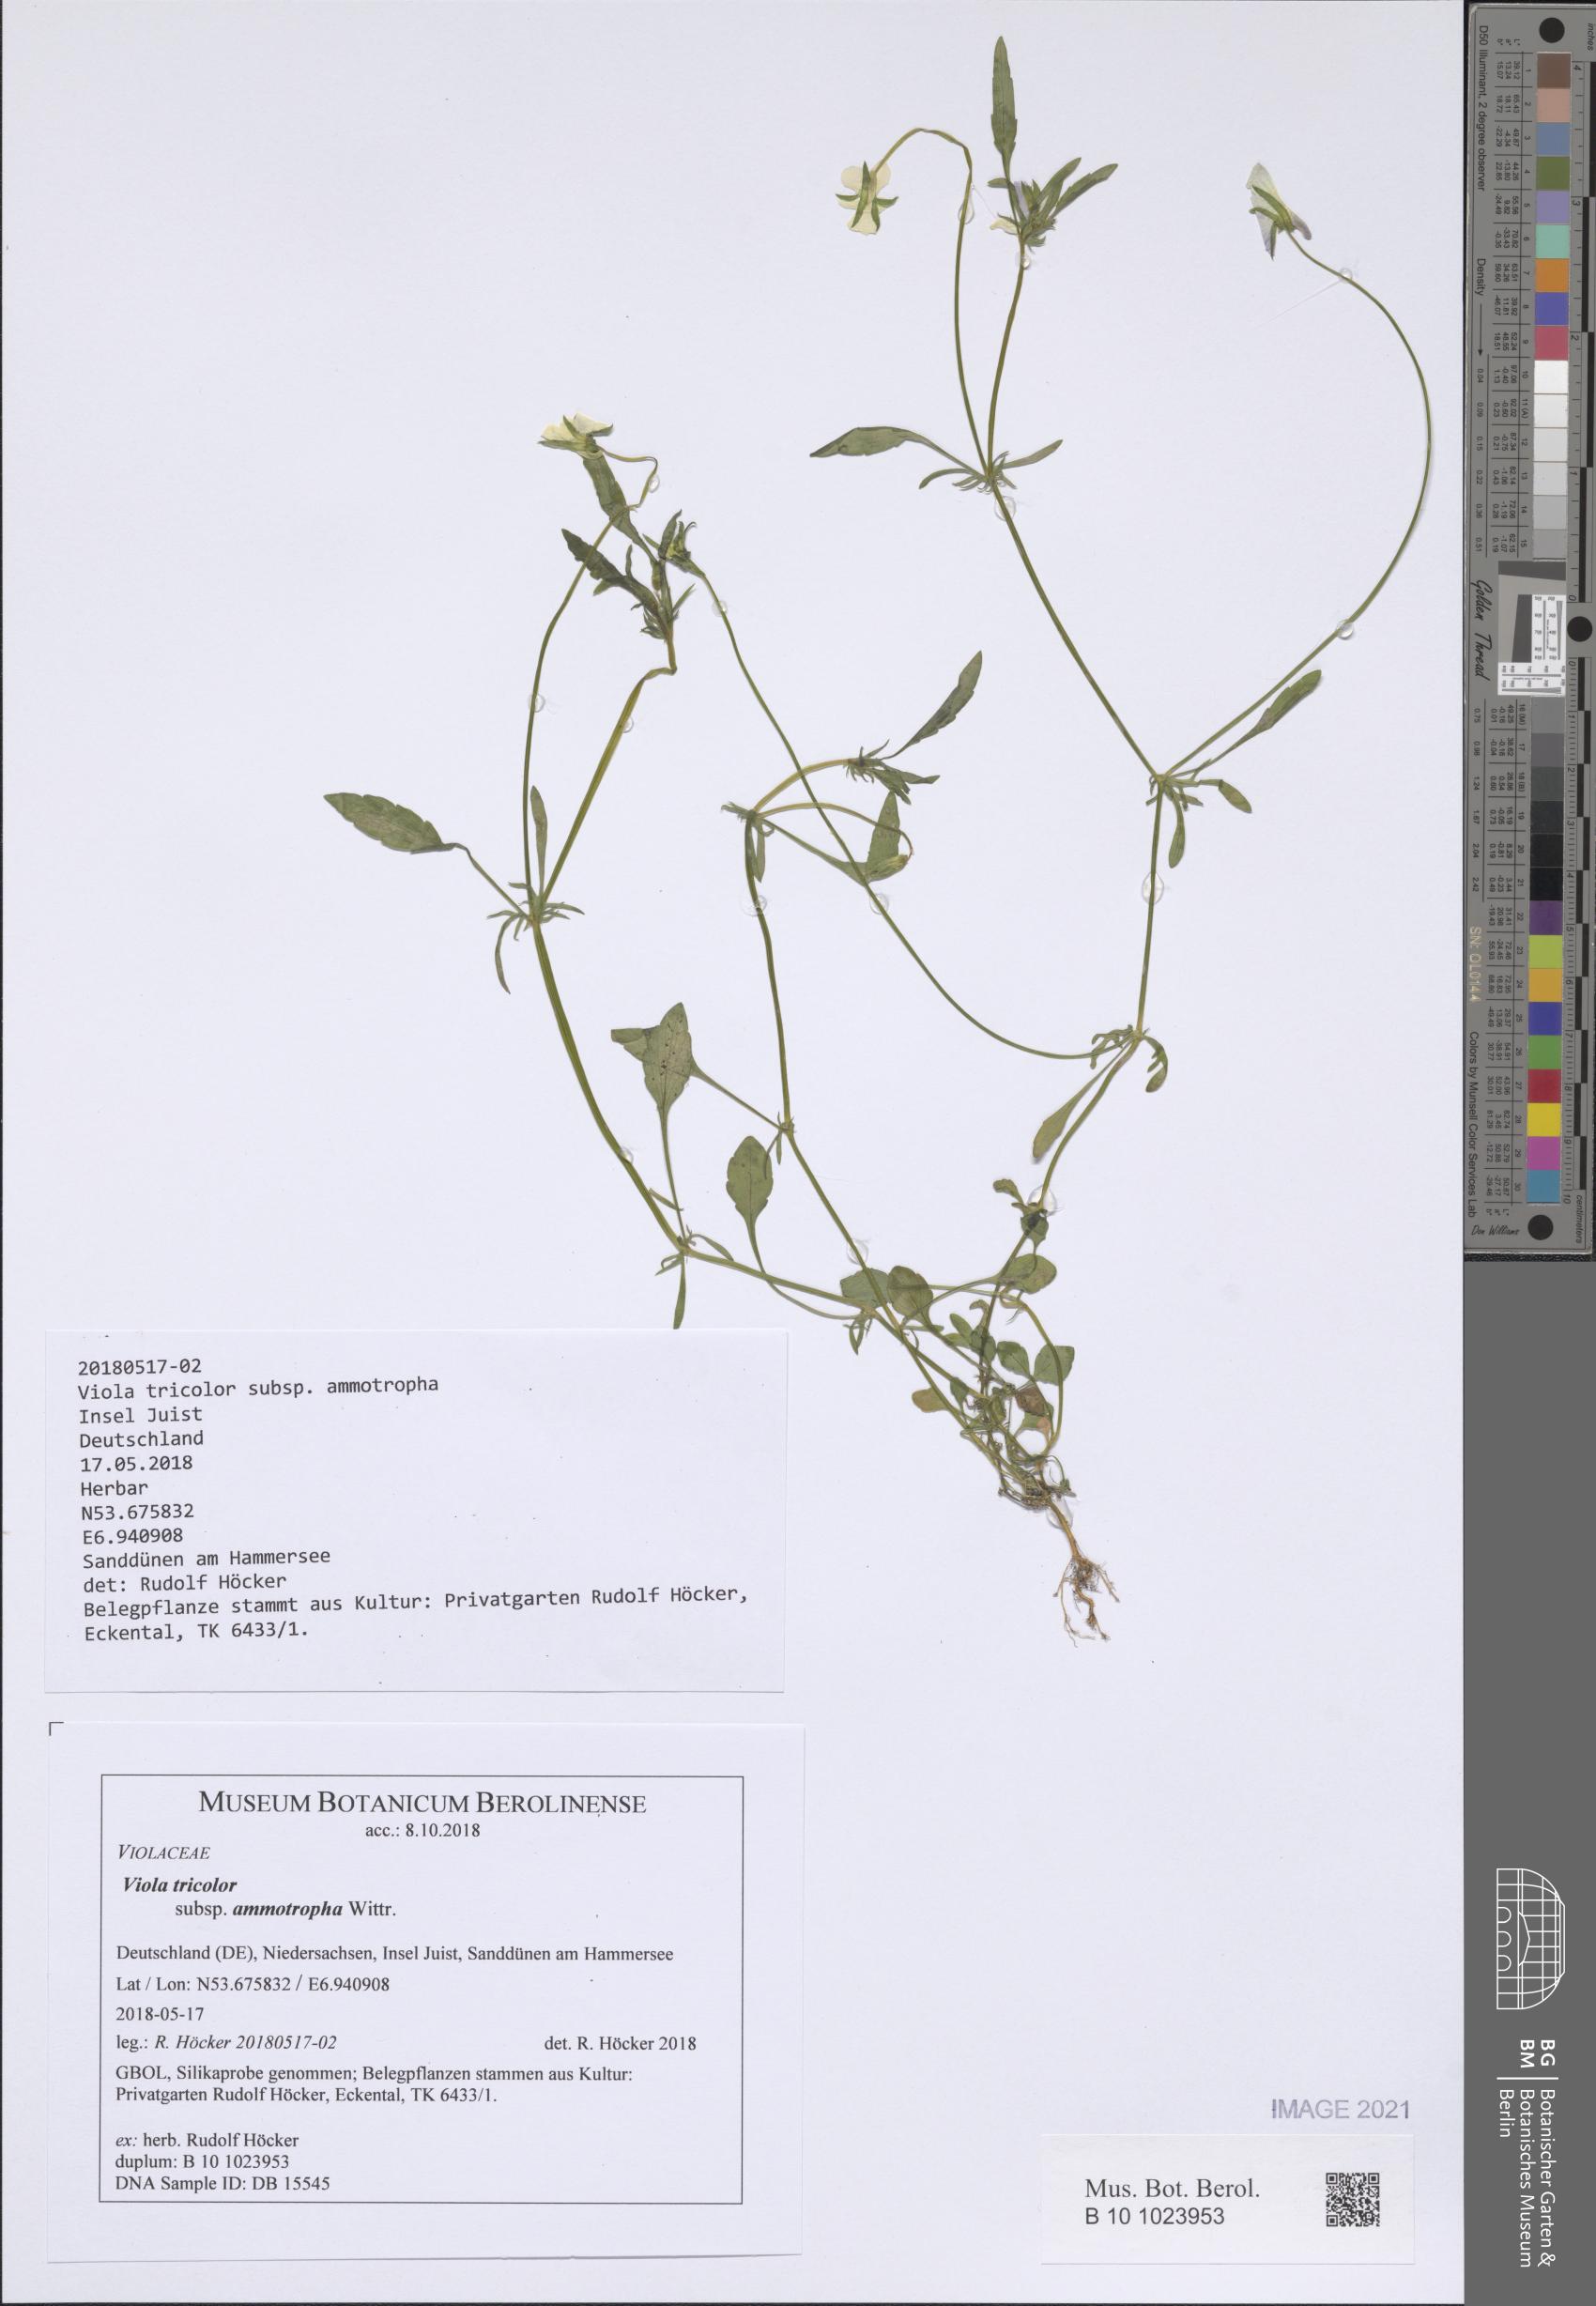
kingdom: Plantae
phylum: Tracheophyta
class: Magnoliopsida
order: Malpighiales
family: Violaceae
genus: Viola
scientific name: Viola tricolor
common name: Pansy
